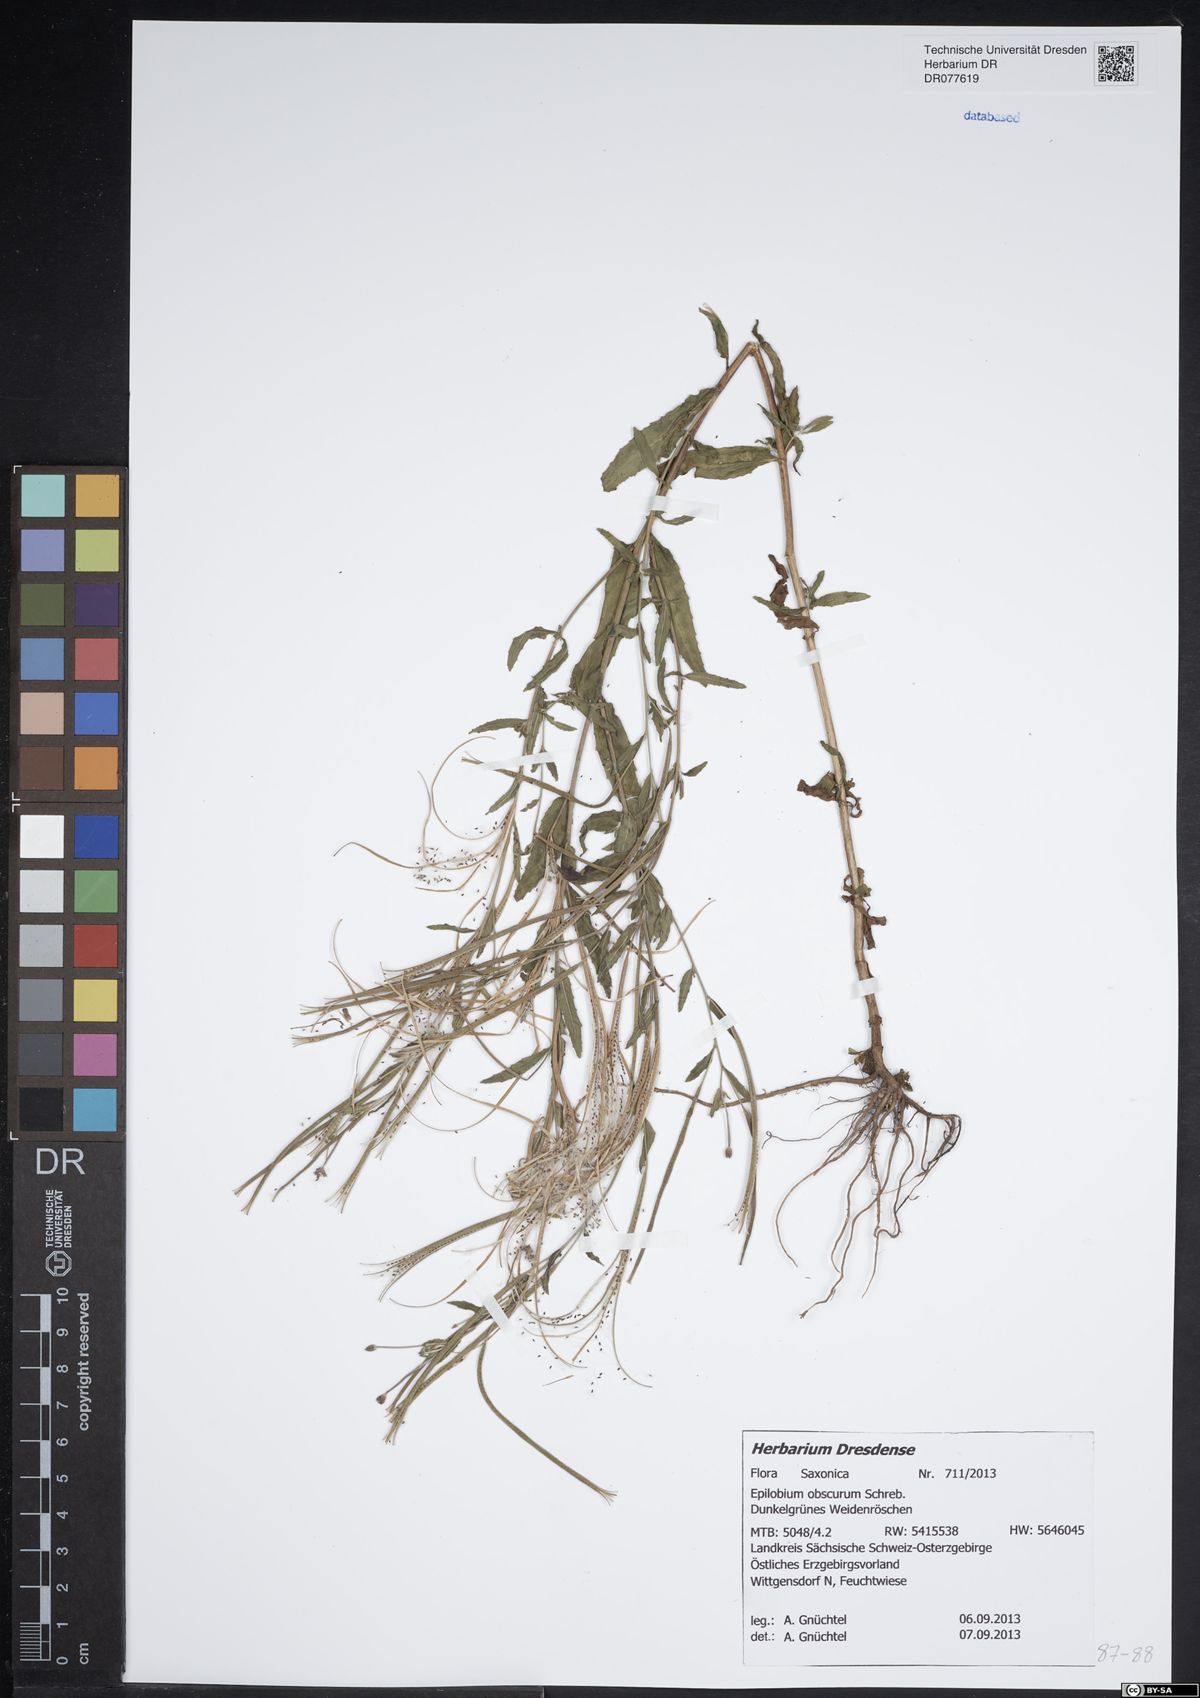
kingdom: Plantae
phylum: Tracheophyta
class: Magnoliopsida
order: Myrtales
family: Onagraceae
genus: Epilobium
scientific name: Epilobium obscurum
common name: Short-fruited willowherb
